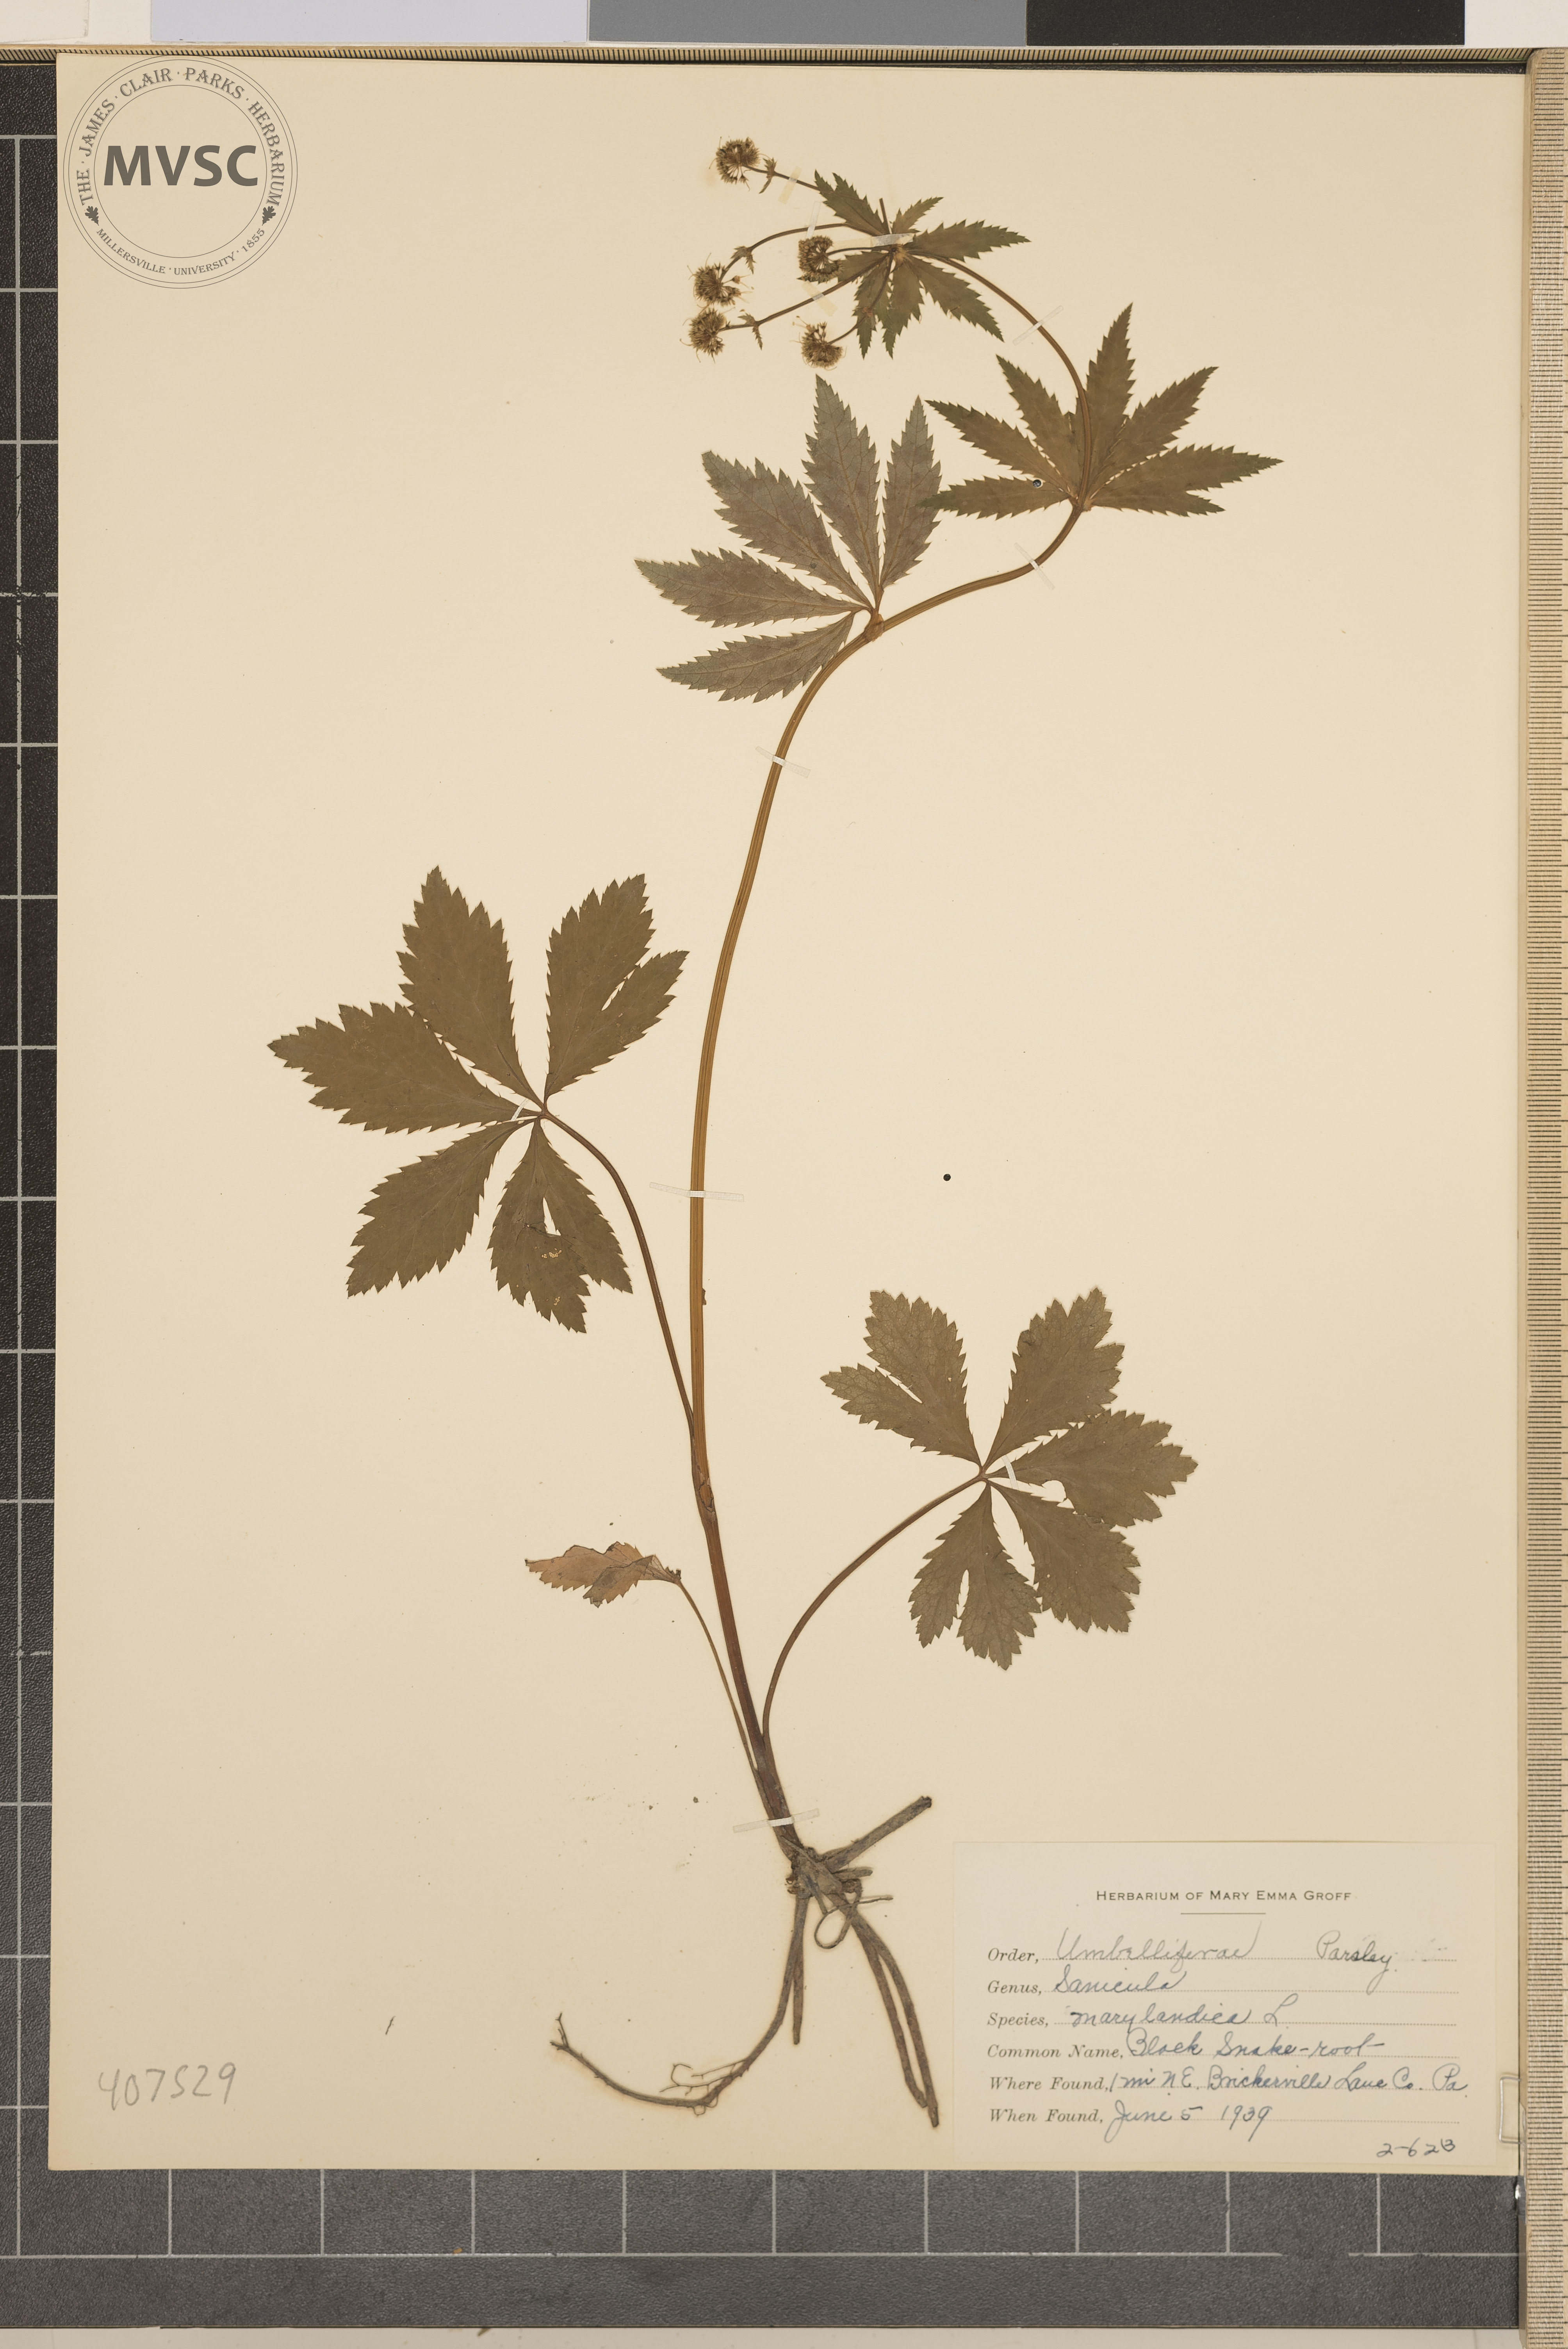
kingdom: Plantae
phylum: Tracheophyta
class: Magnoliopsida
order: Apiales
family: Apiaceae
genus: Sanicula
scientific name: Sanicula marilandica
